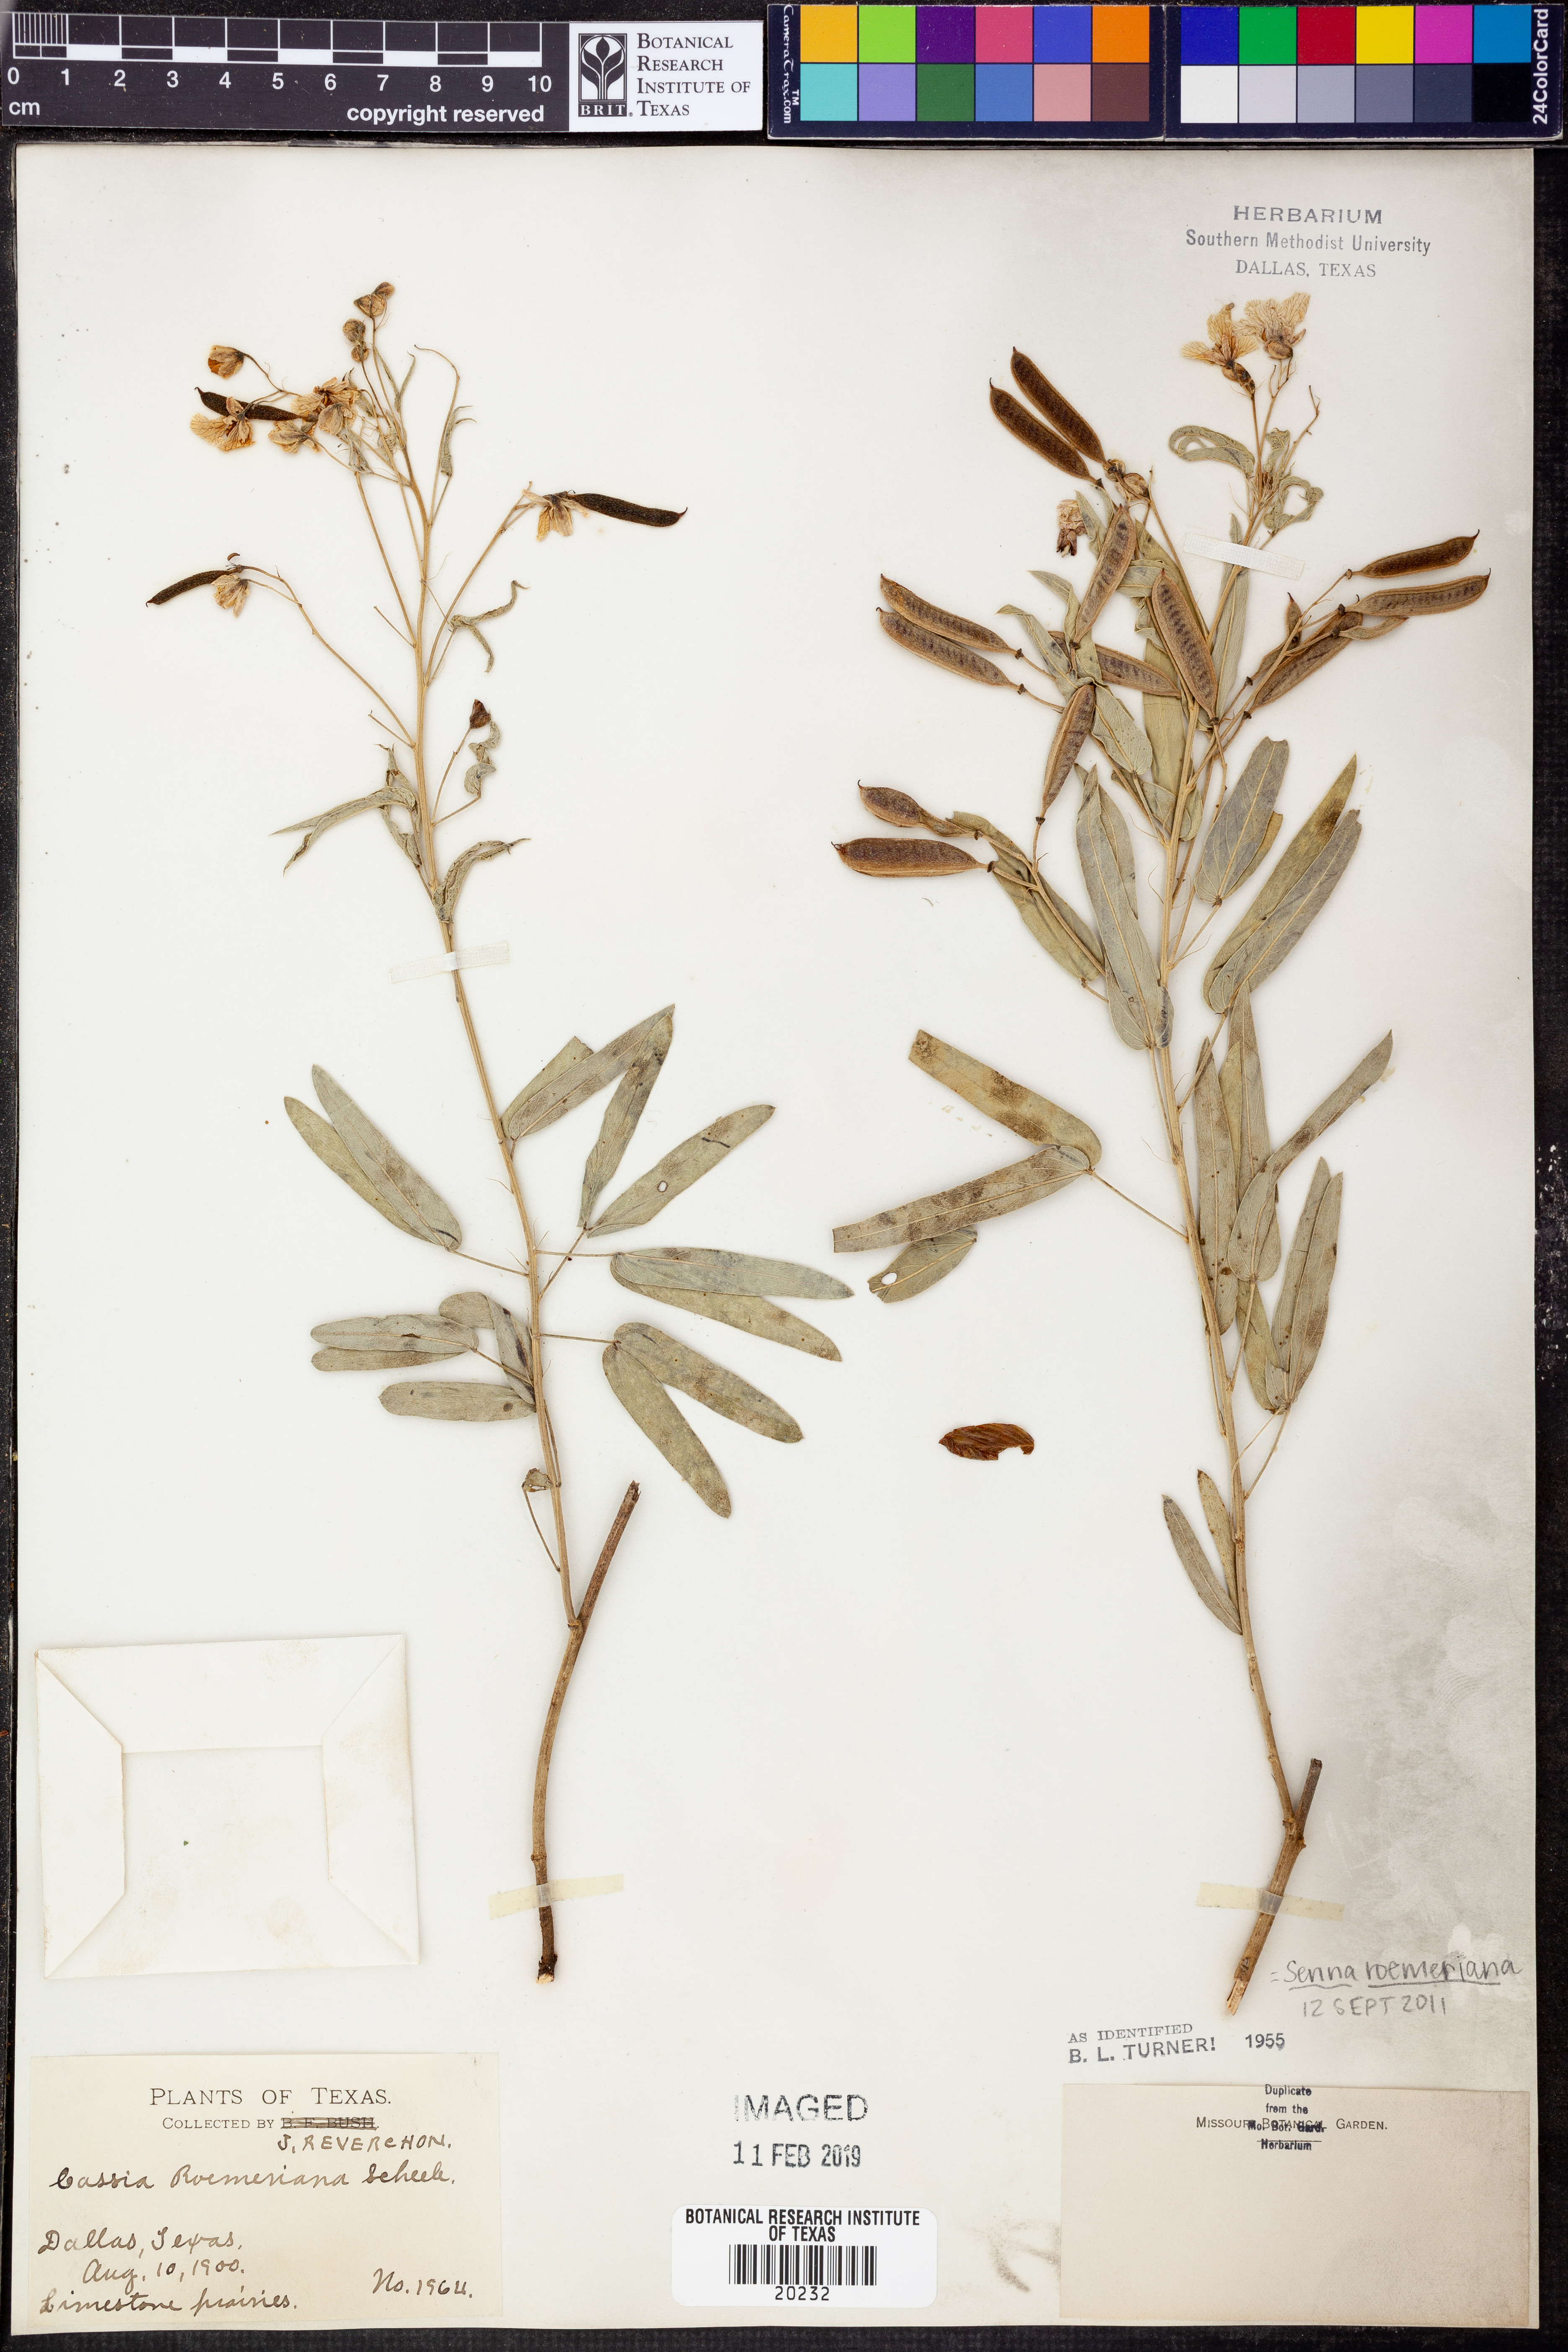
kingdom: Plantae
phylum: Tracheophyta
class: Magnoliopsida
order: Fabales
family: Fabaceae
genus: Senna
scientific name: Senna roemeriana
